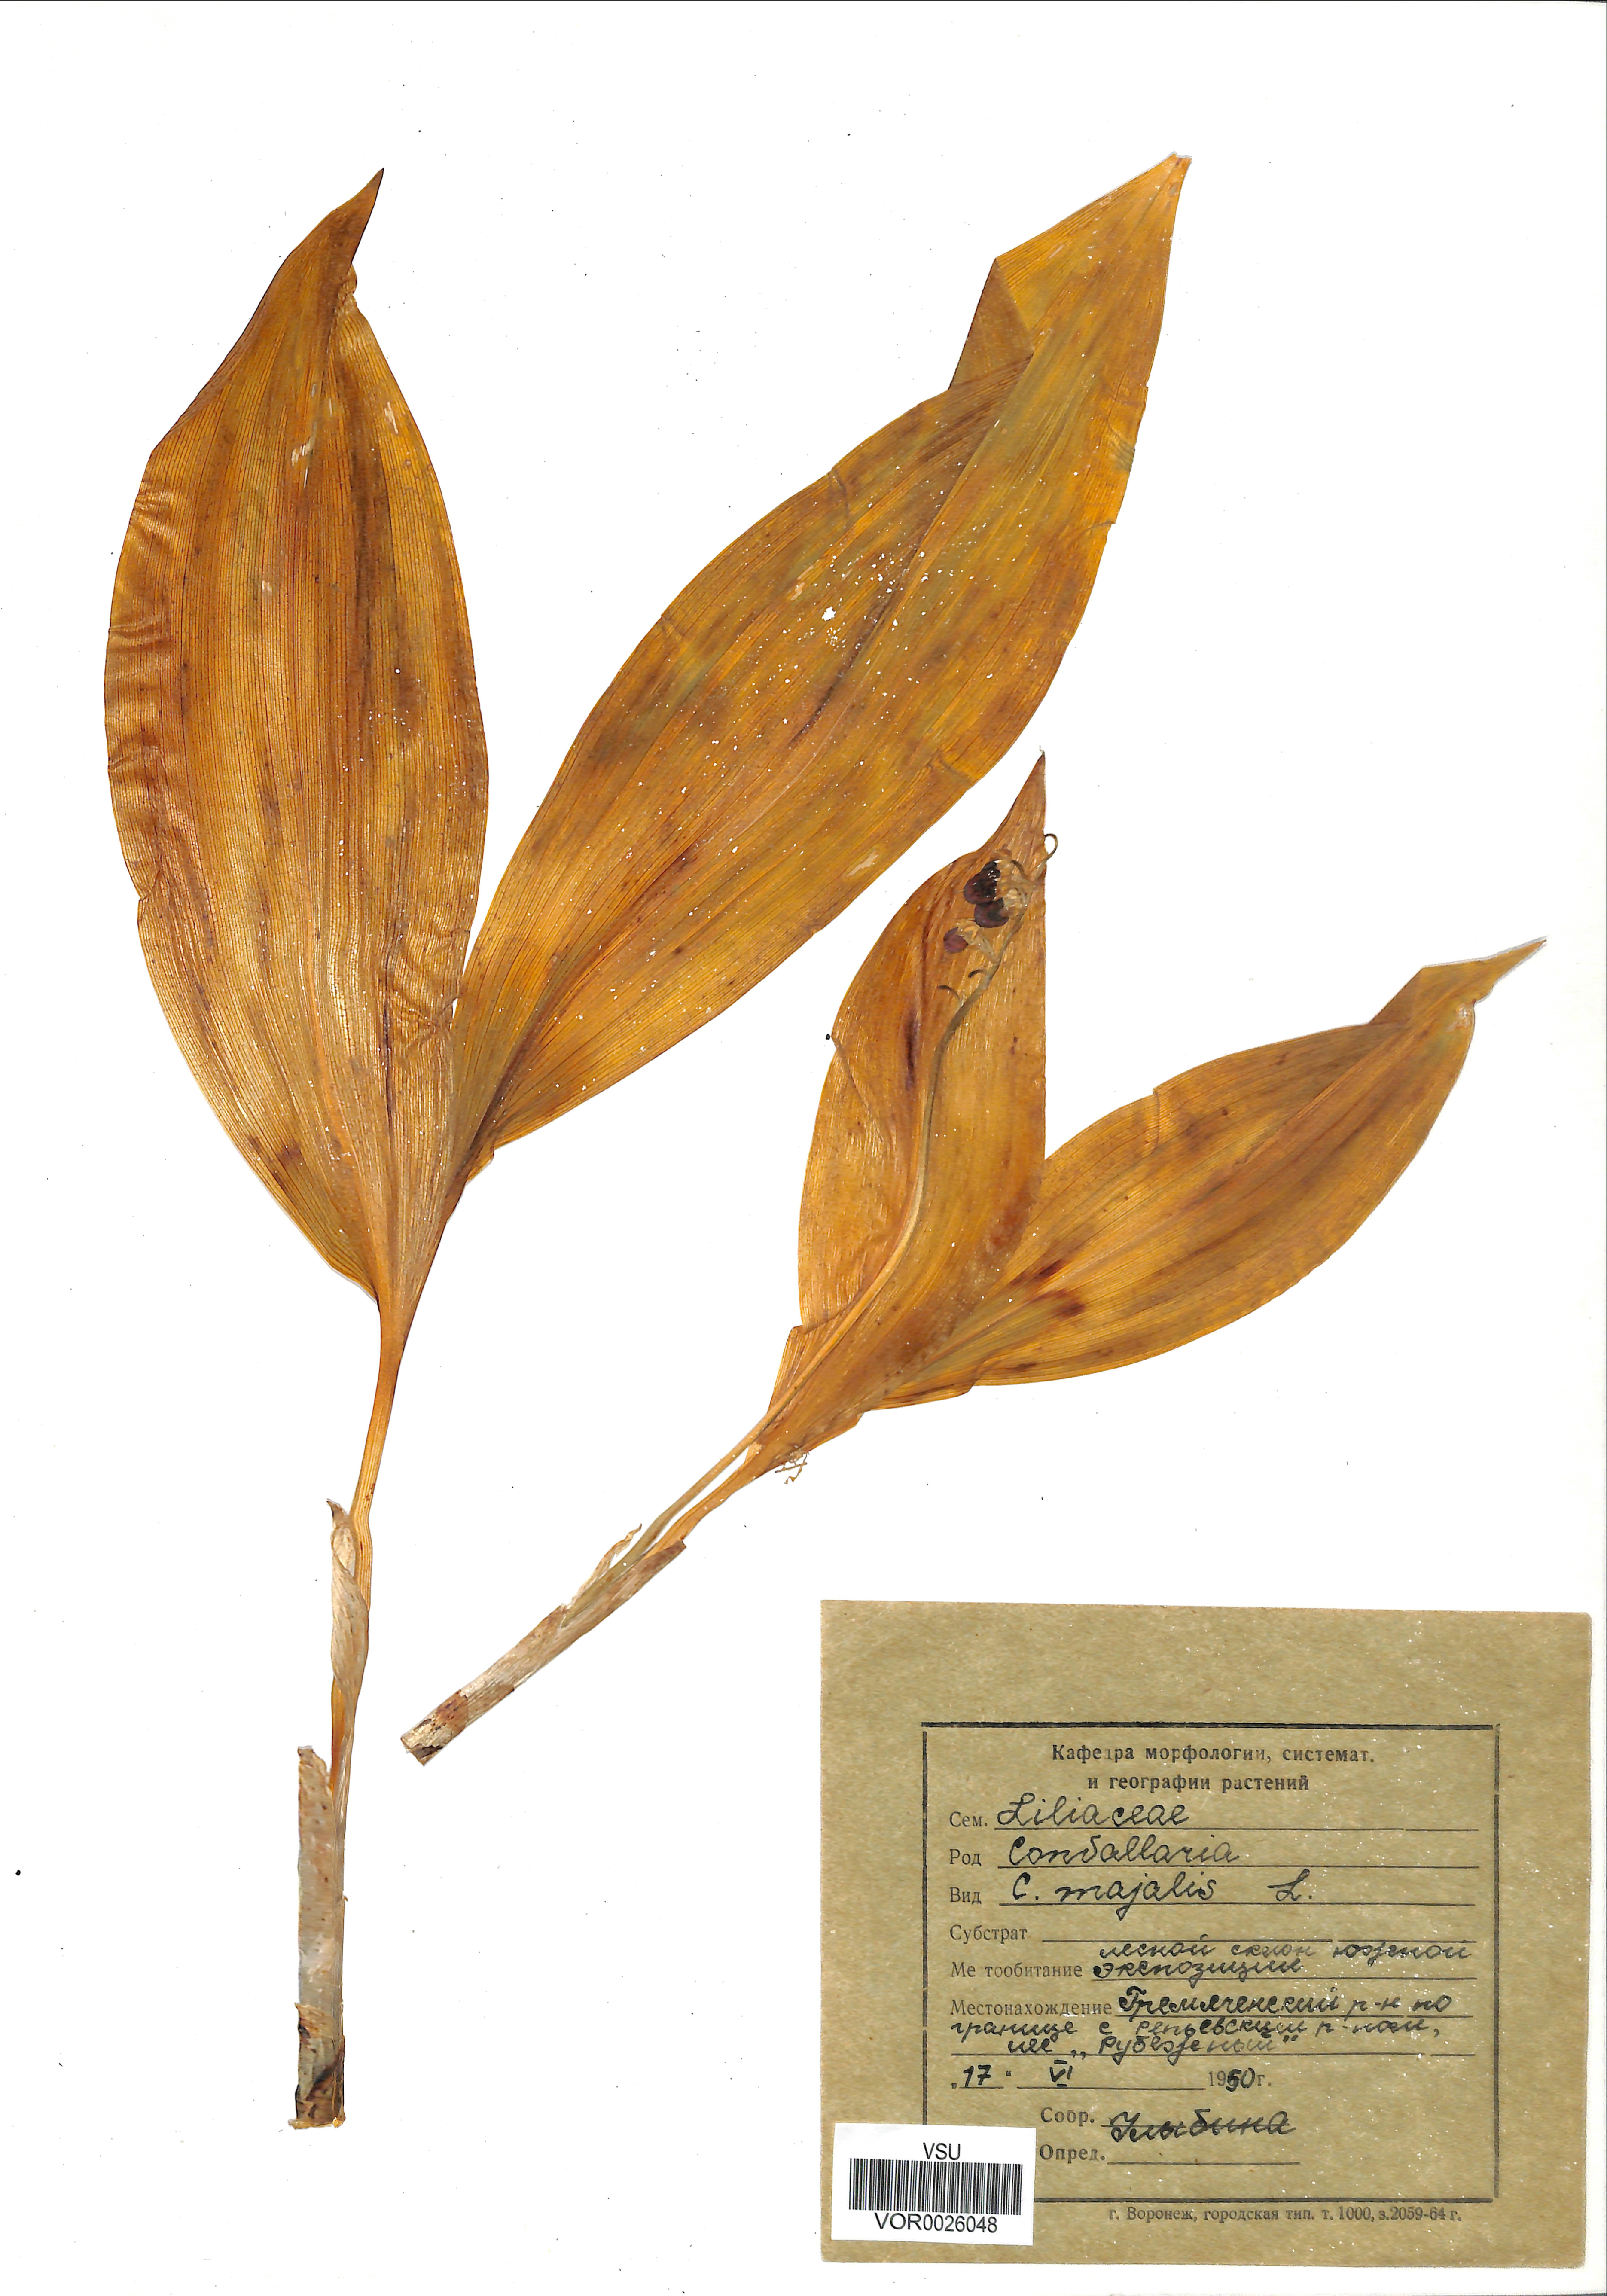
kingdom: Plantae
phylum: Tracheophyta
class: Liliopsida
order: Asparagales
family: Asparagaceae
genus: Convallaria
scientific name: Convallaria majalis
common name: Lily-of-the-valley
